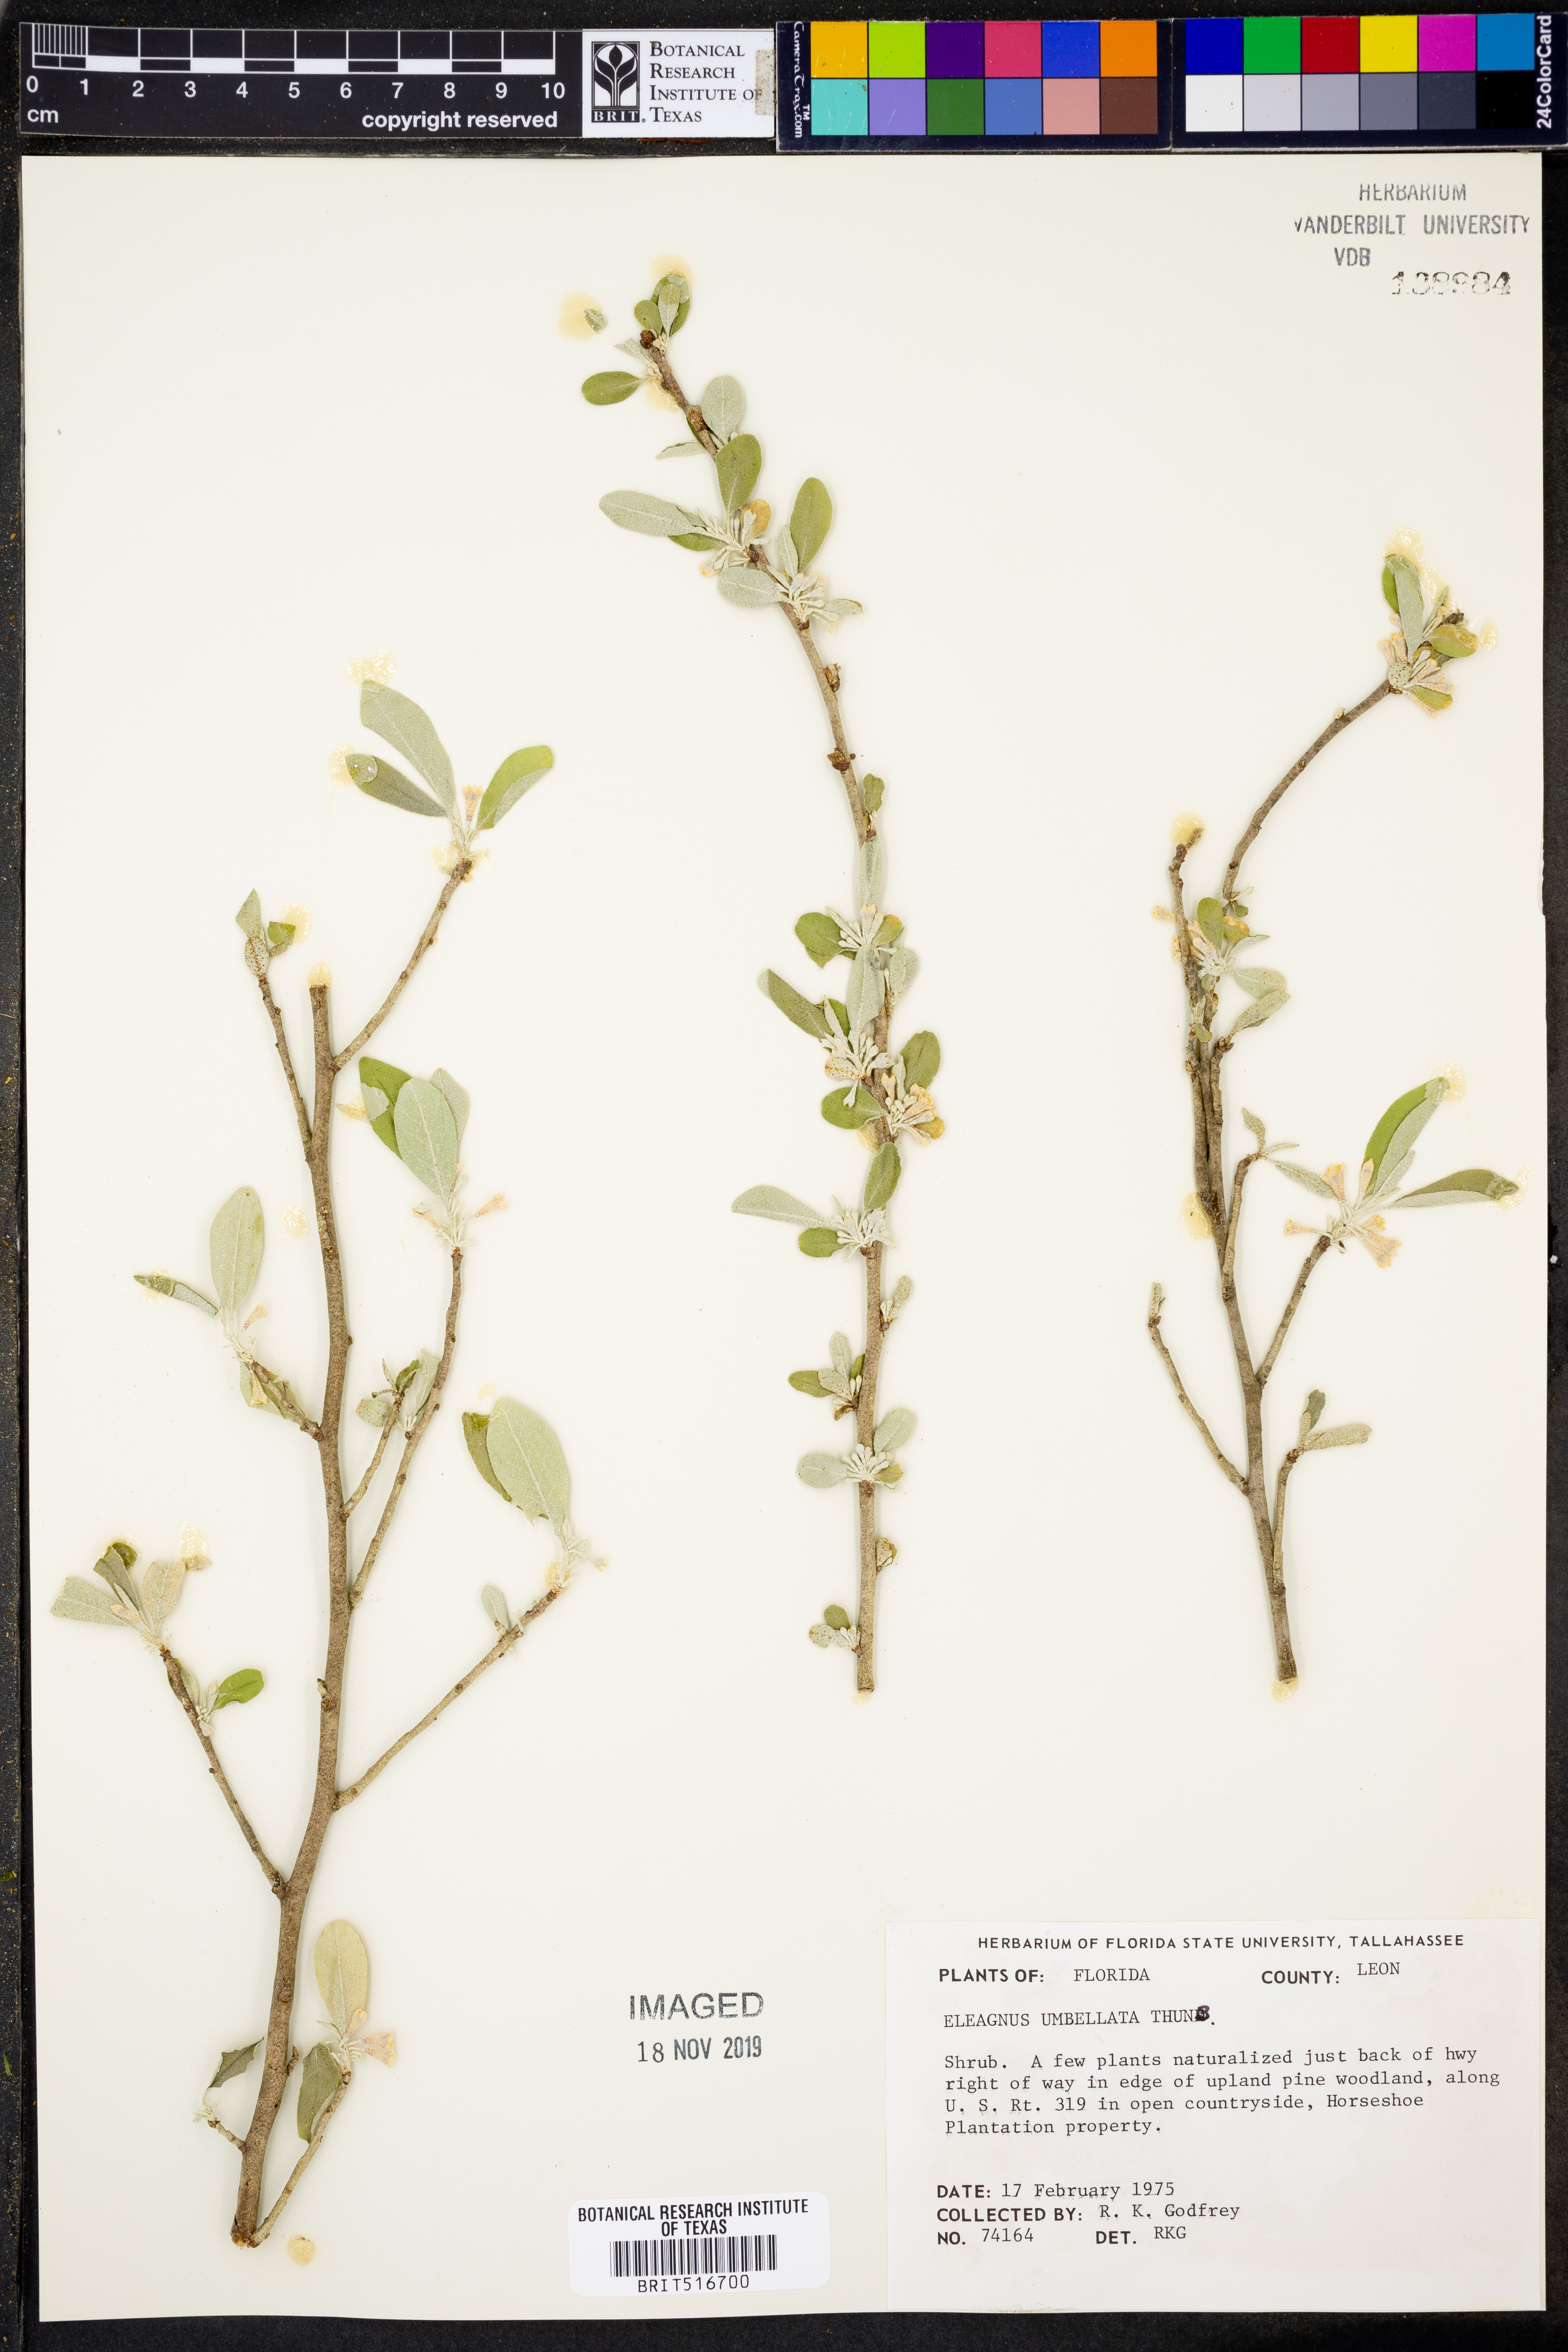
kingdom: Plantae
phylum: Tracheophyta
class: Magnoliopsida
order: Rosales
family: Elaeagnaceae
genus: Elaeagnus
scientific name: Elaeagnus umbellata
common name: Autumn olive
